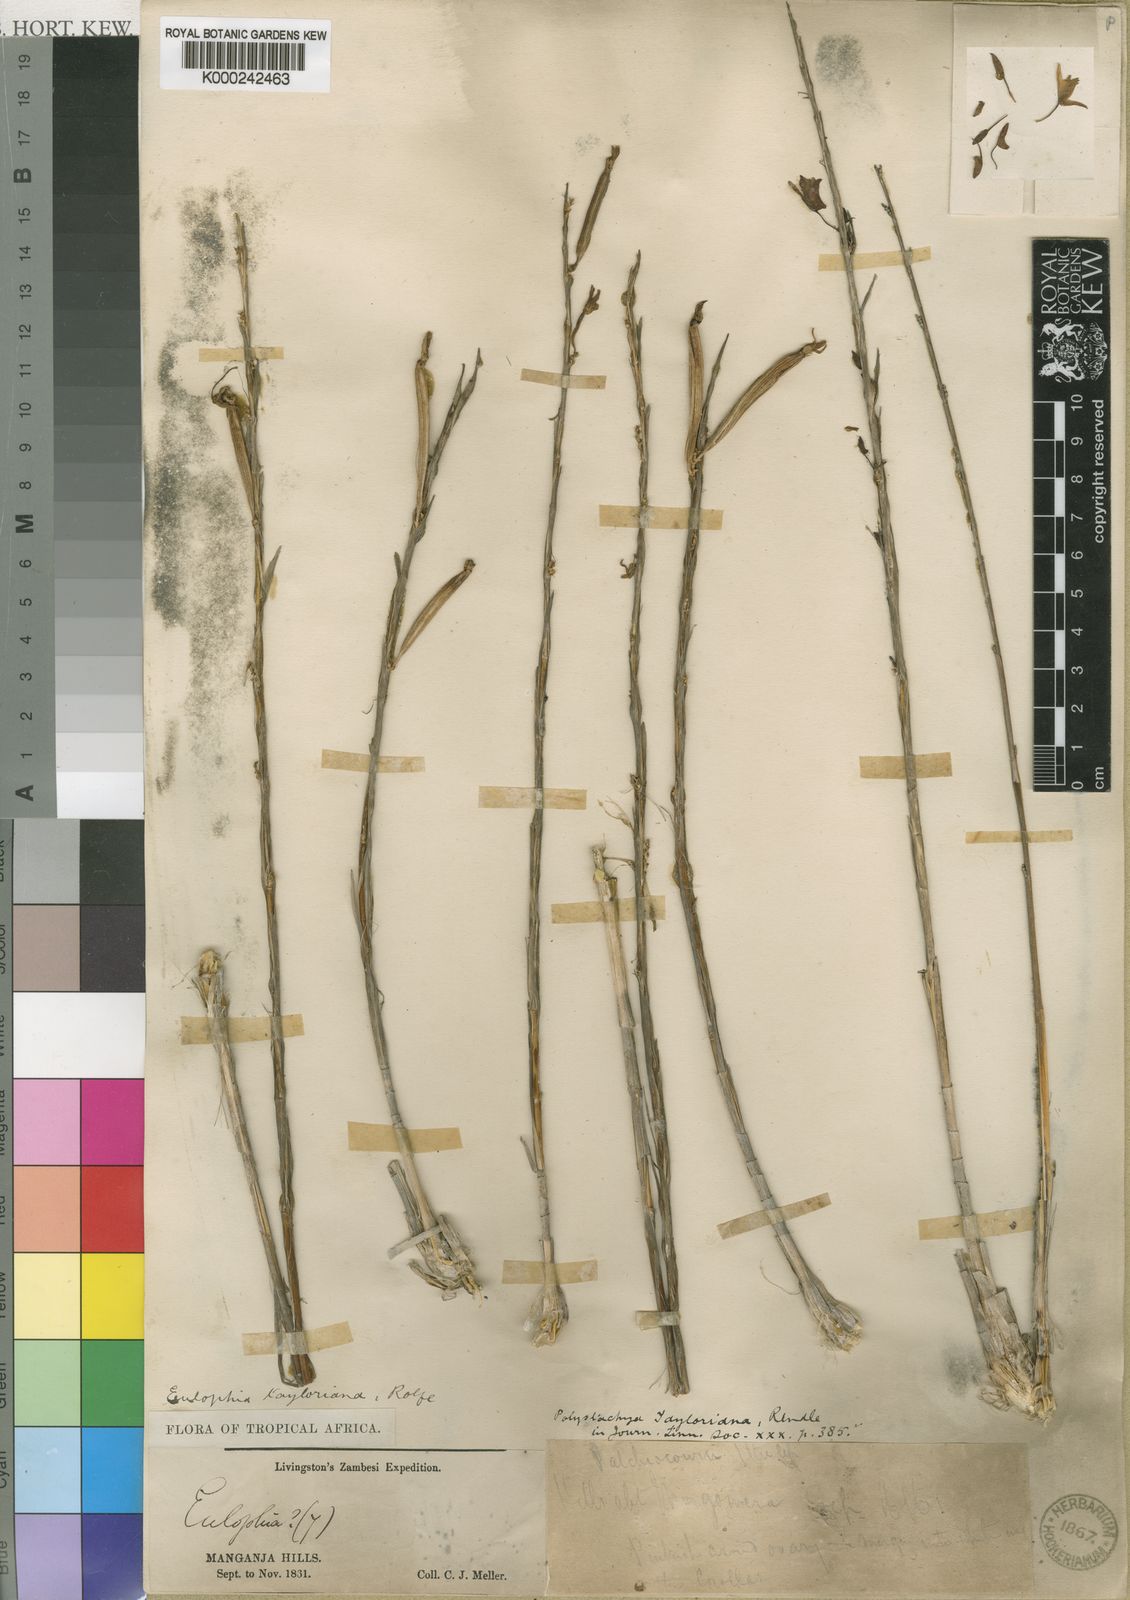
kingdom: Plantae
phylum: Tracheophyta
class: Liliopsida
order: Asparagales
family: Orchidaceae
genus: Polystachya
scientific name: Polystachya dendrobiiflora
